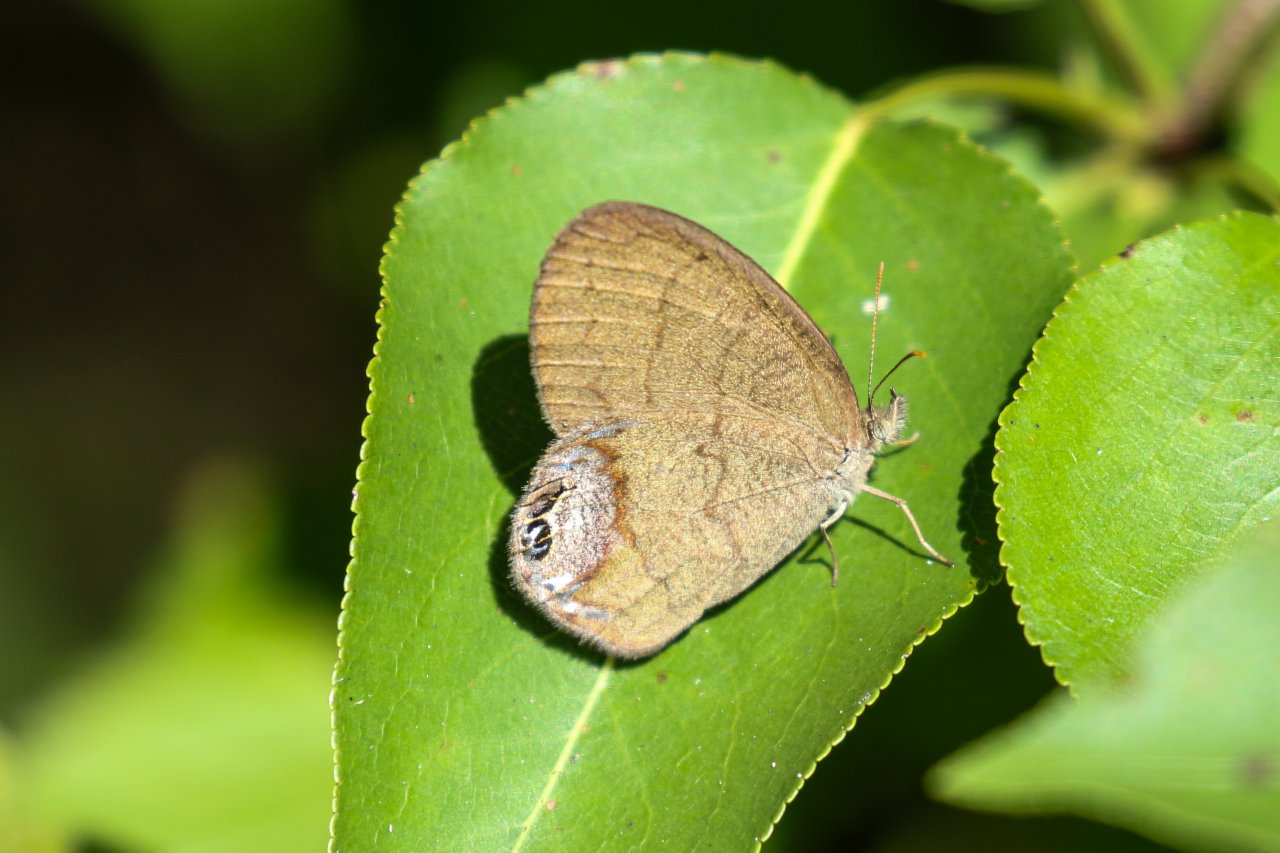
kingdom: Animalia
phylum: Arthropoda
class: Insecta
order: Lepidoptera
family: Nymphalidae
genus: Euptychia
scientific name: Euptychia cornelius
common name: Gemmed Satyr
